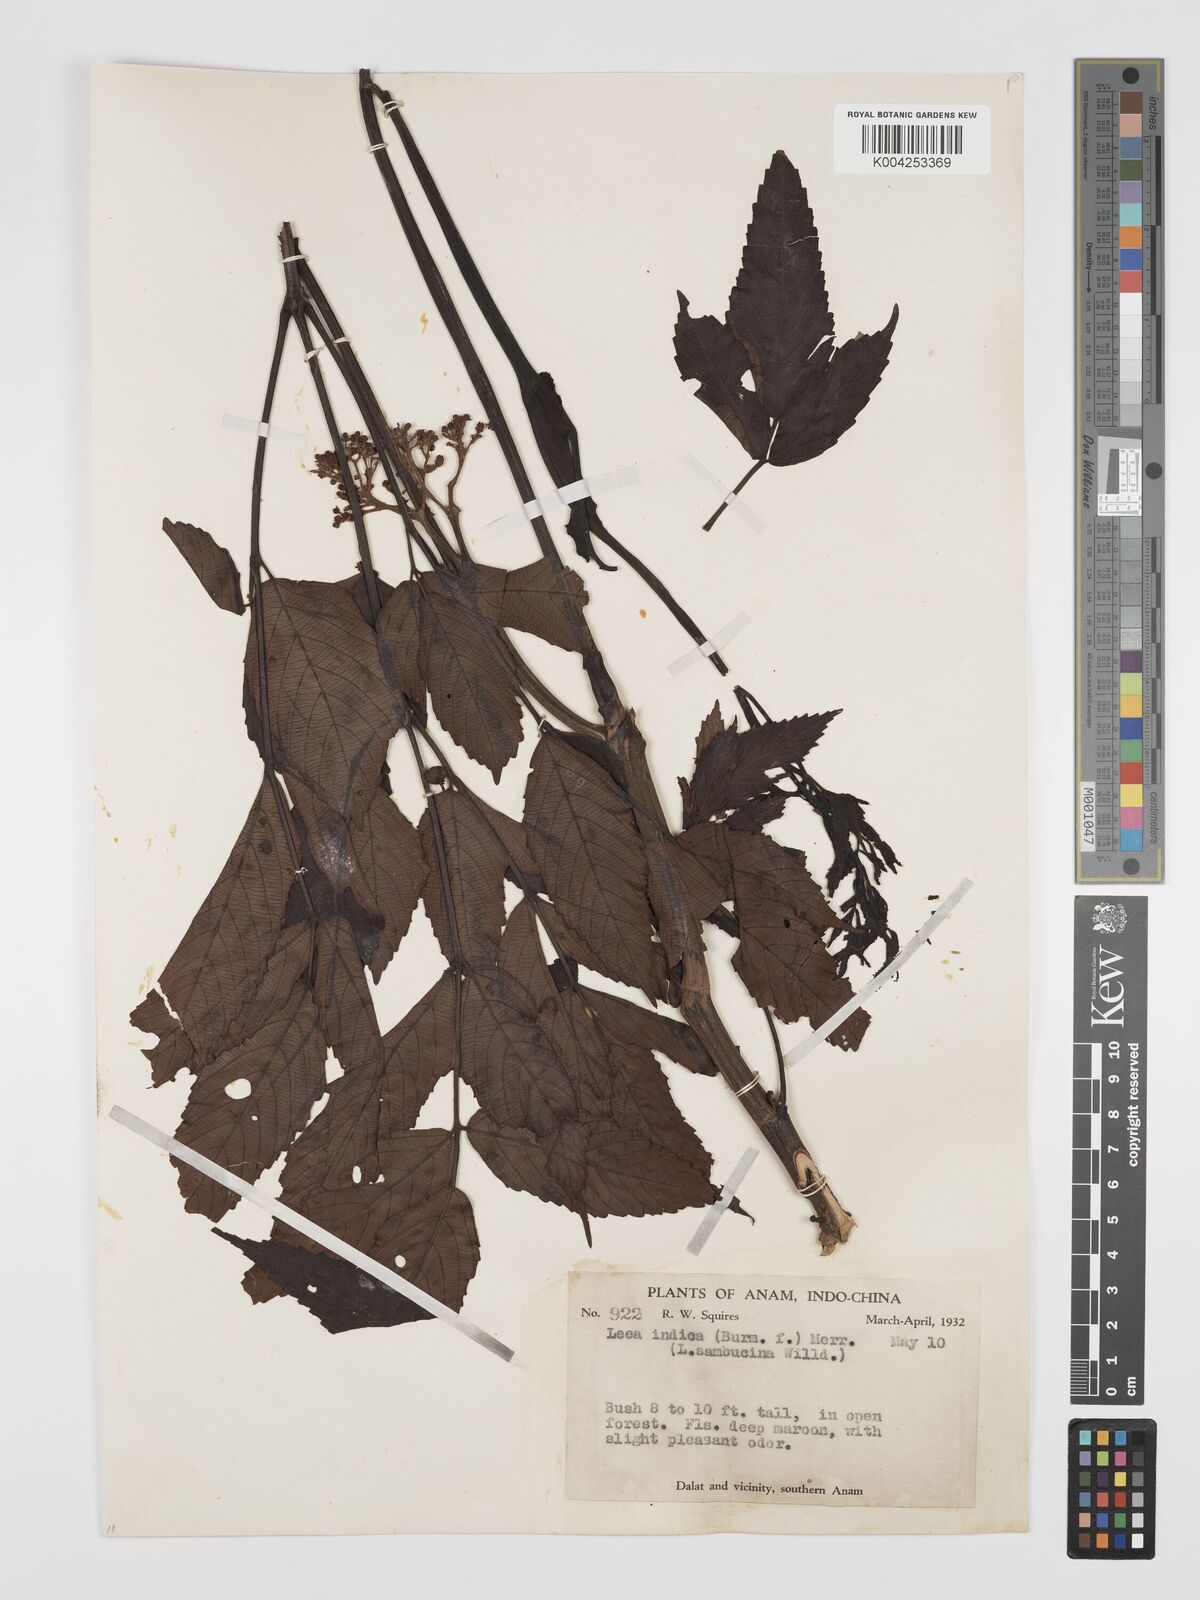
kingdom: Plantae
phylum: Tracheophyta
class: Magnoliopsida
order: Vitales
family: Vitaceae
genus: Leea
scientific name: Leea indica
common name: Bandicoot-berry
